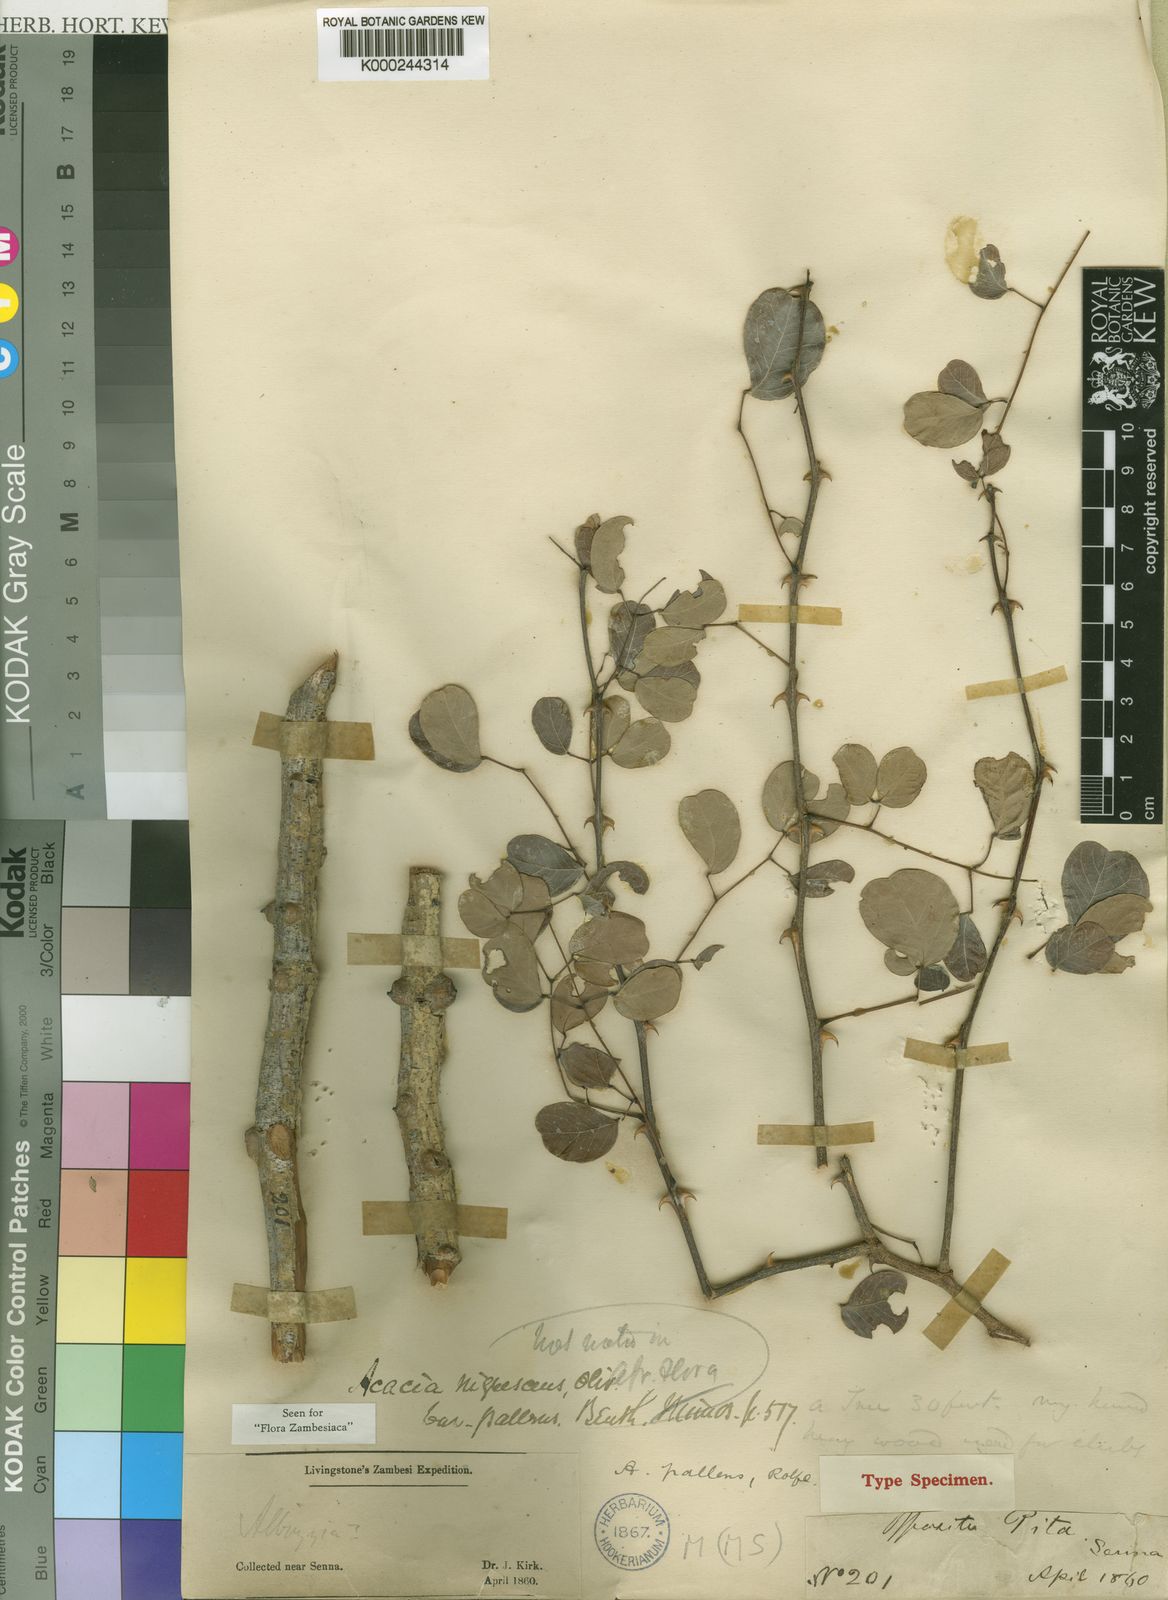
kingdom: Plantae
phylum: Tracheophyta
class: Magnoliopsida
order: Fabales
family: Fabaceae
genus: Senegalia
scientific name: Senegalia nigrescens
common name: Knobthorn
